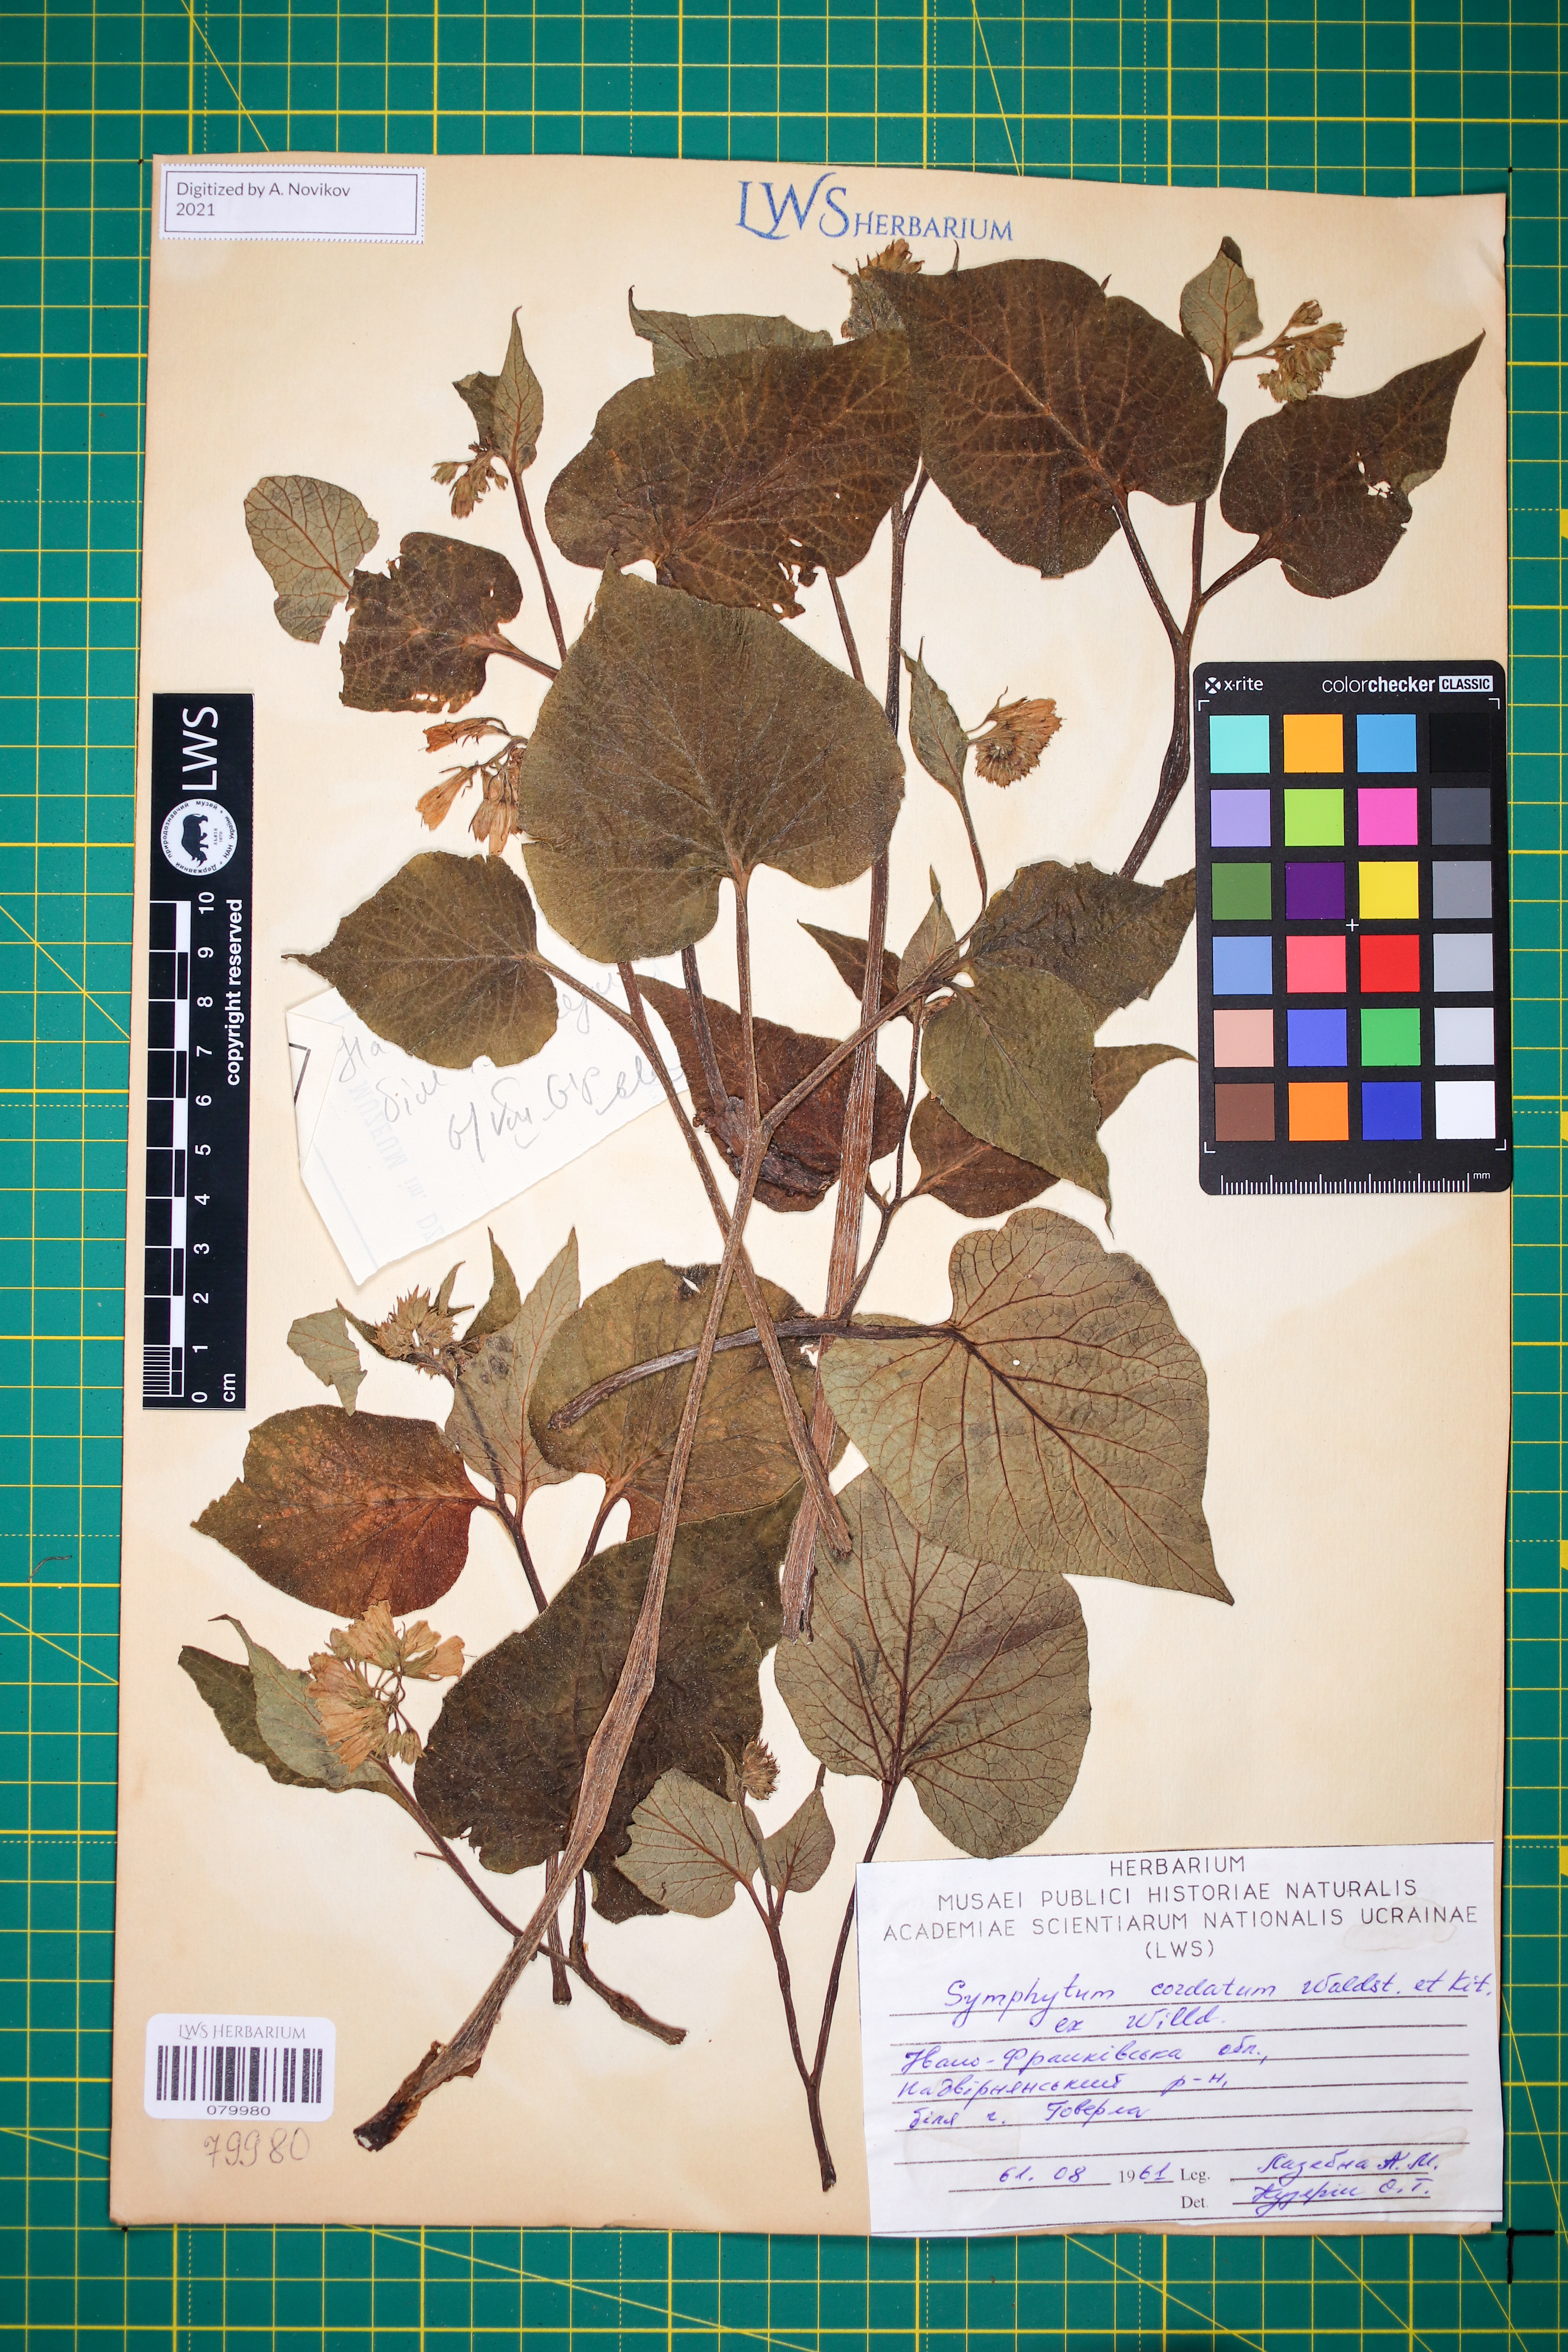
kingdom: Plantae
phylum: Tracheophyta
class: Magnoliopsida
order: Boraginales
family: Boraginaceae
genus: Symphytum
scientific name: Symphytum cordatum
